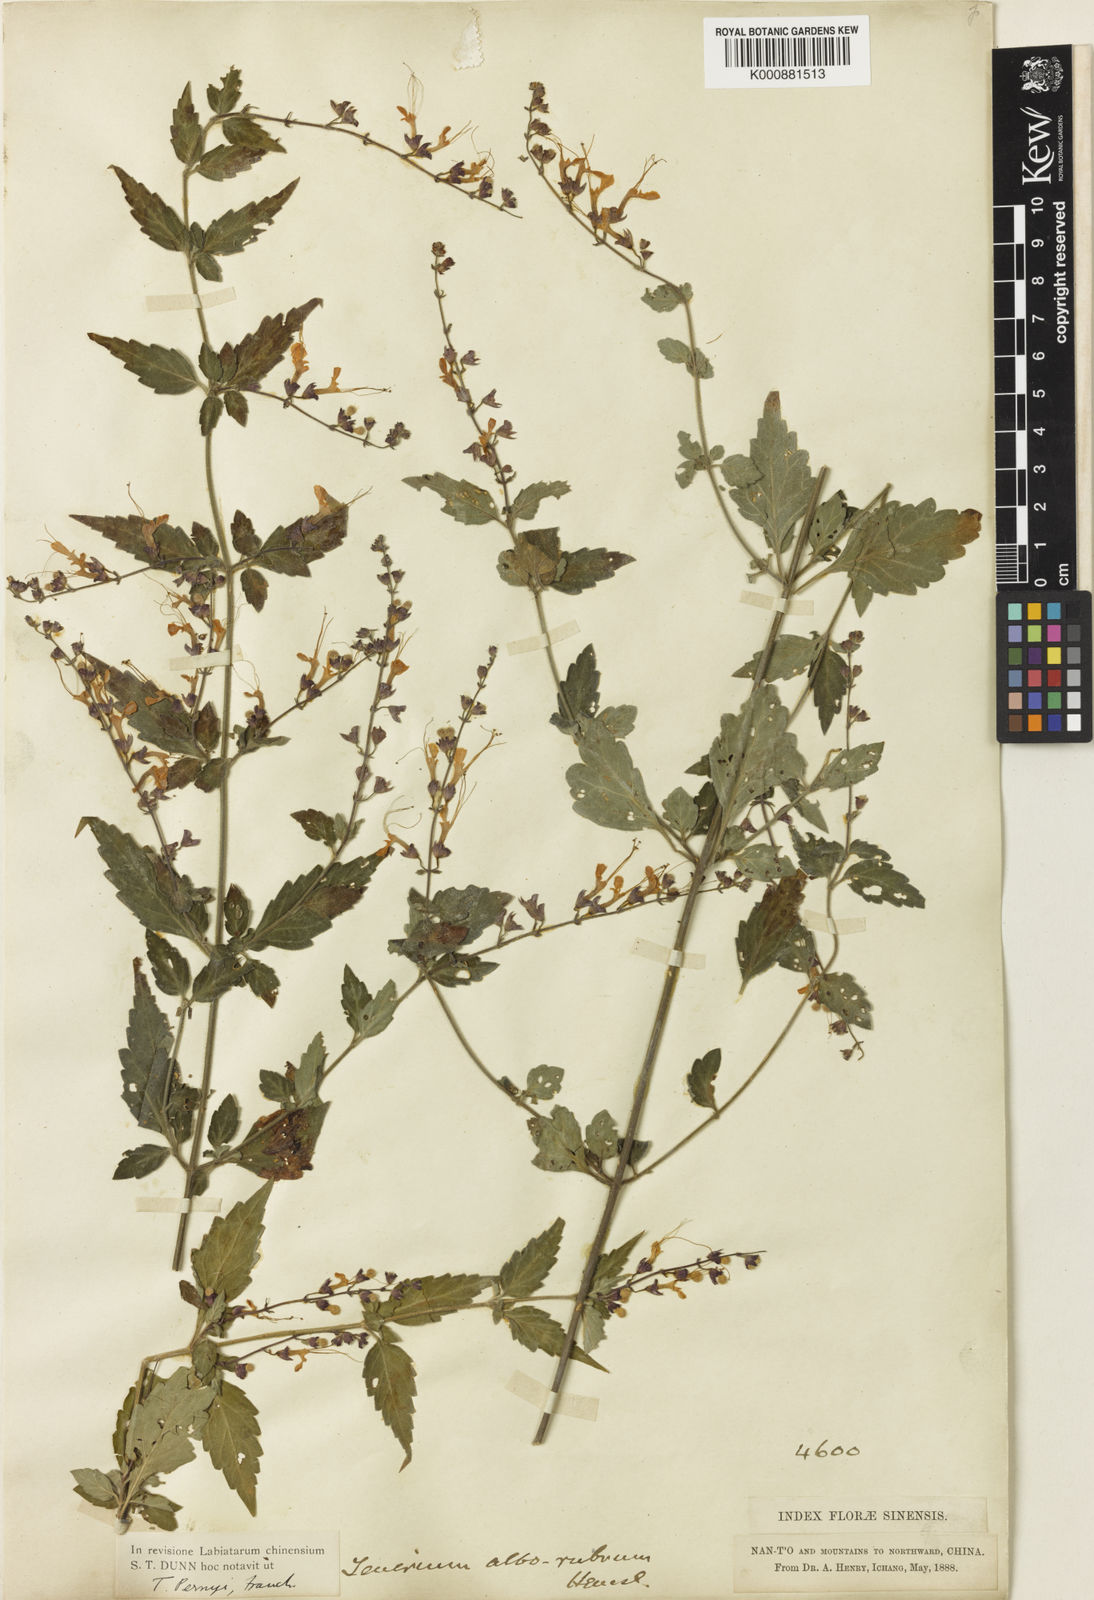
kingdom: Plantae
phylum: Tracheophyta
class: Magnoliopsida
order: Lamiales
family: Lamiaceae
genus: Teucrium
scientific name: Teucrium alborubrum
